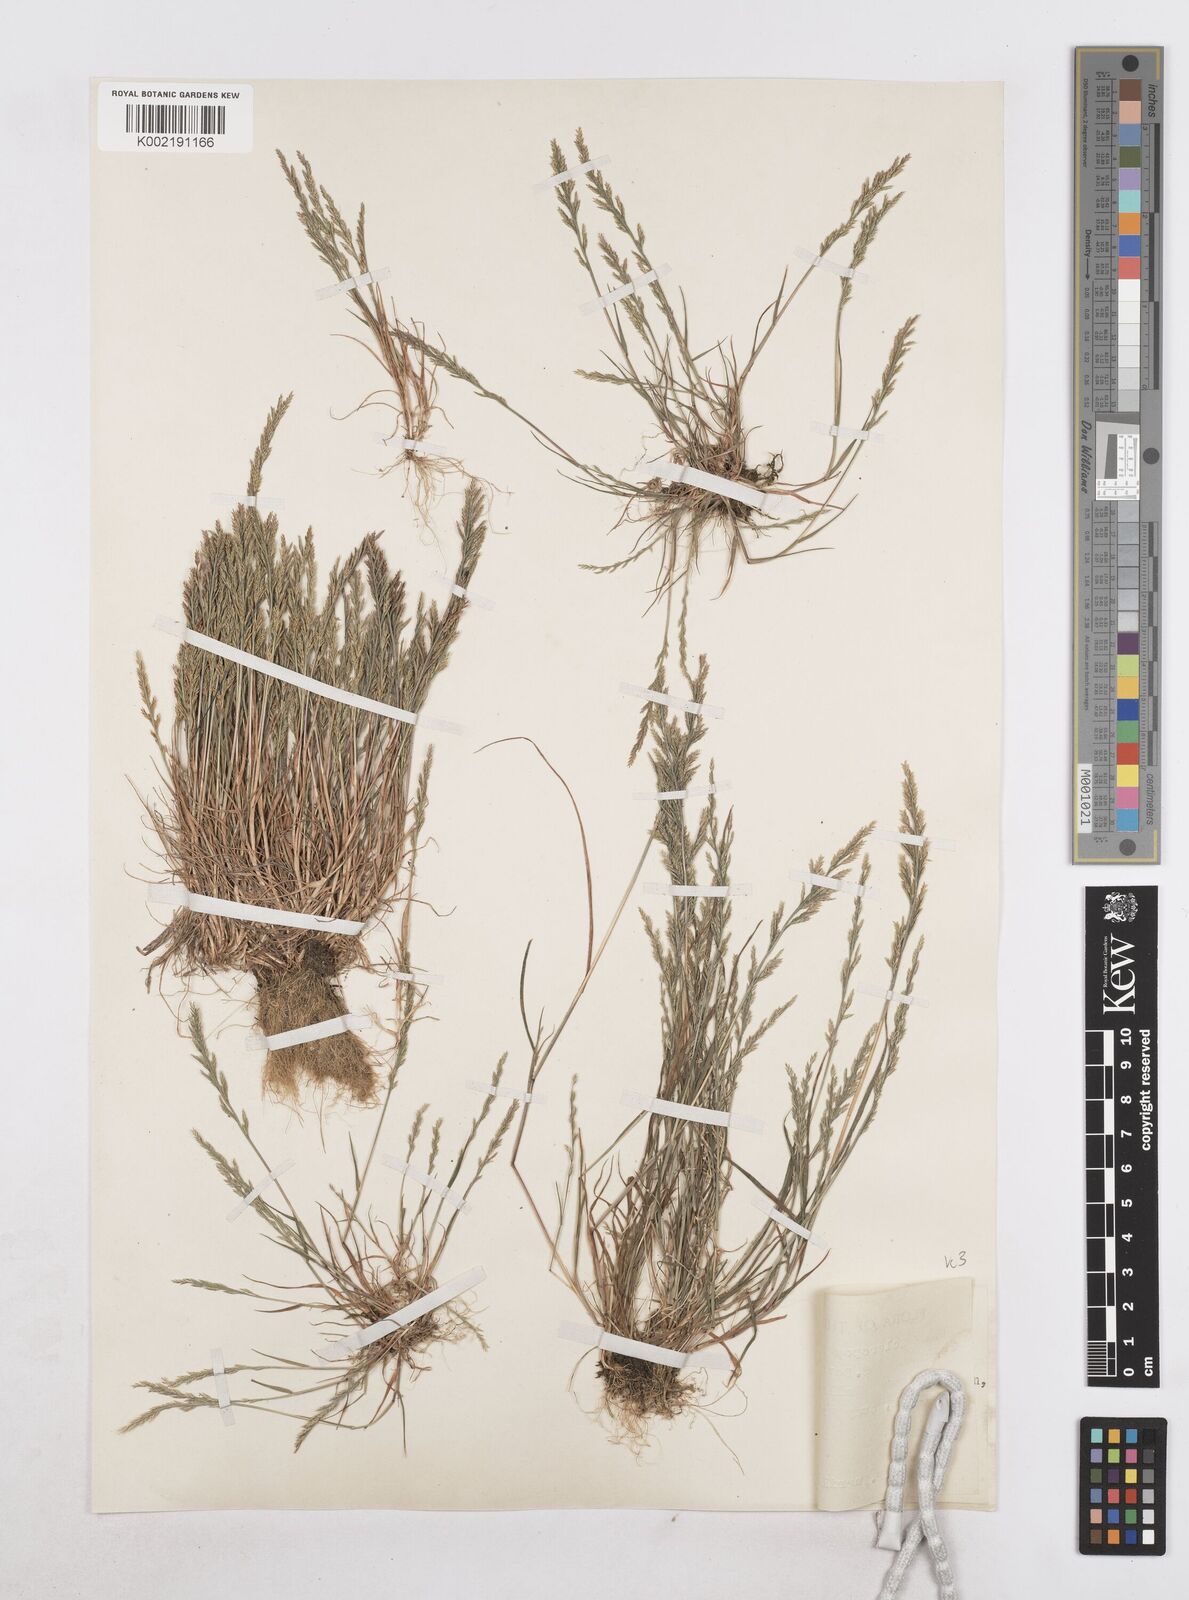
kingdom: Plantae
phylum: Tracheophyta
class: Liliopsida
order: Poales
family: Poaceae
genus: Catapodium
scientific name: Catapodium rigidum
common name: Fern-grass
